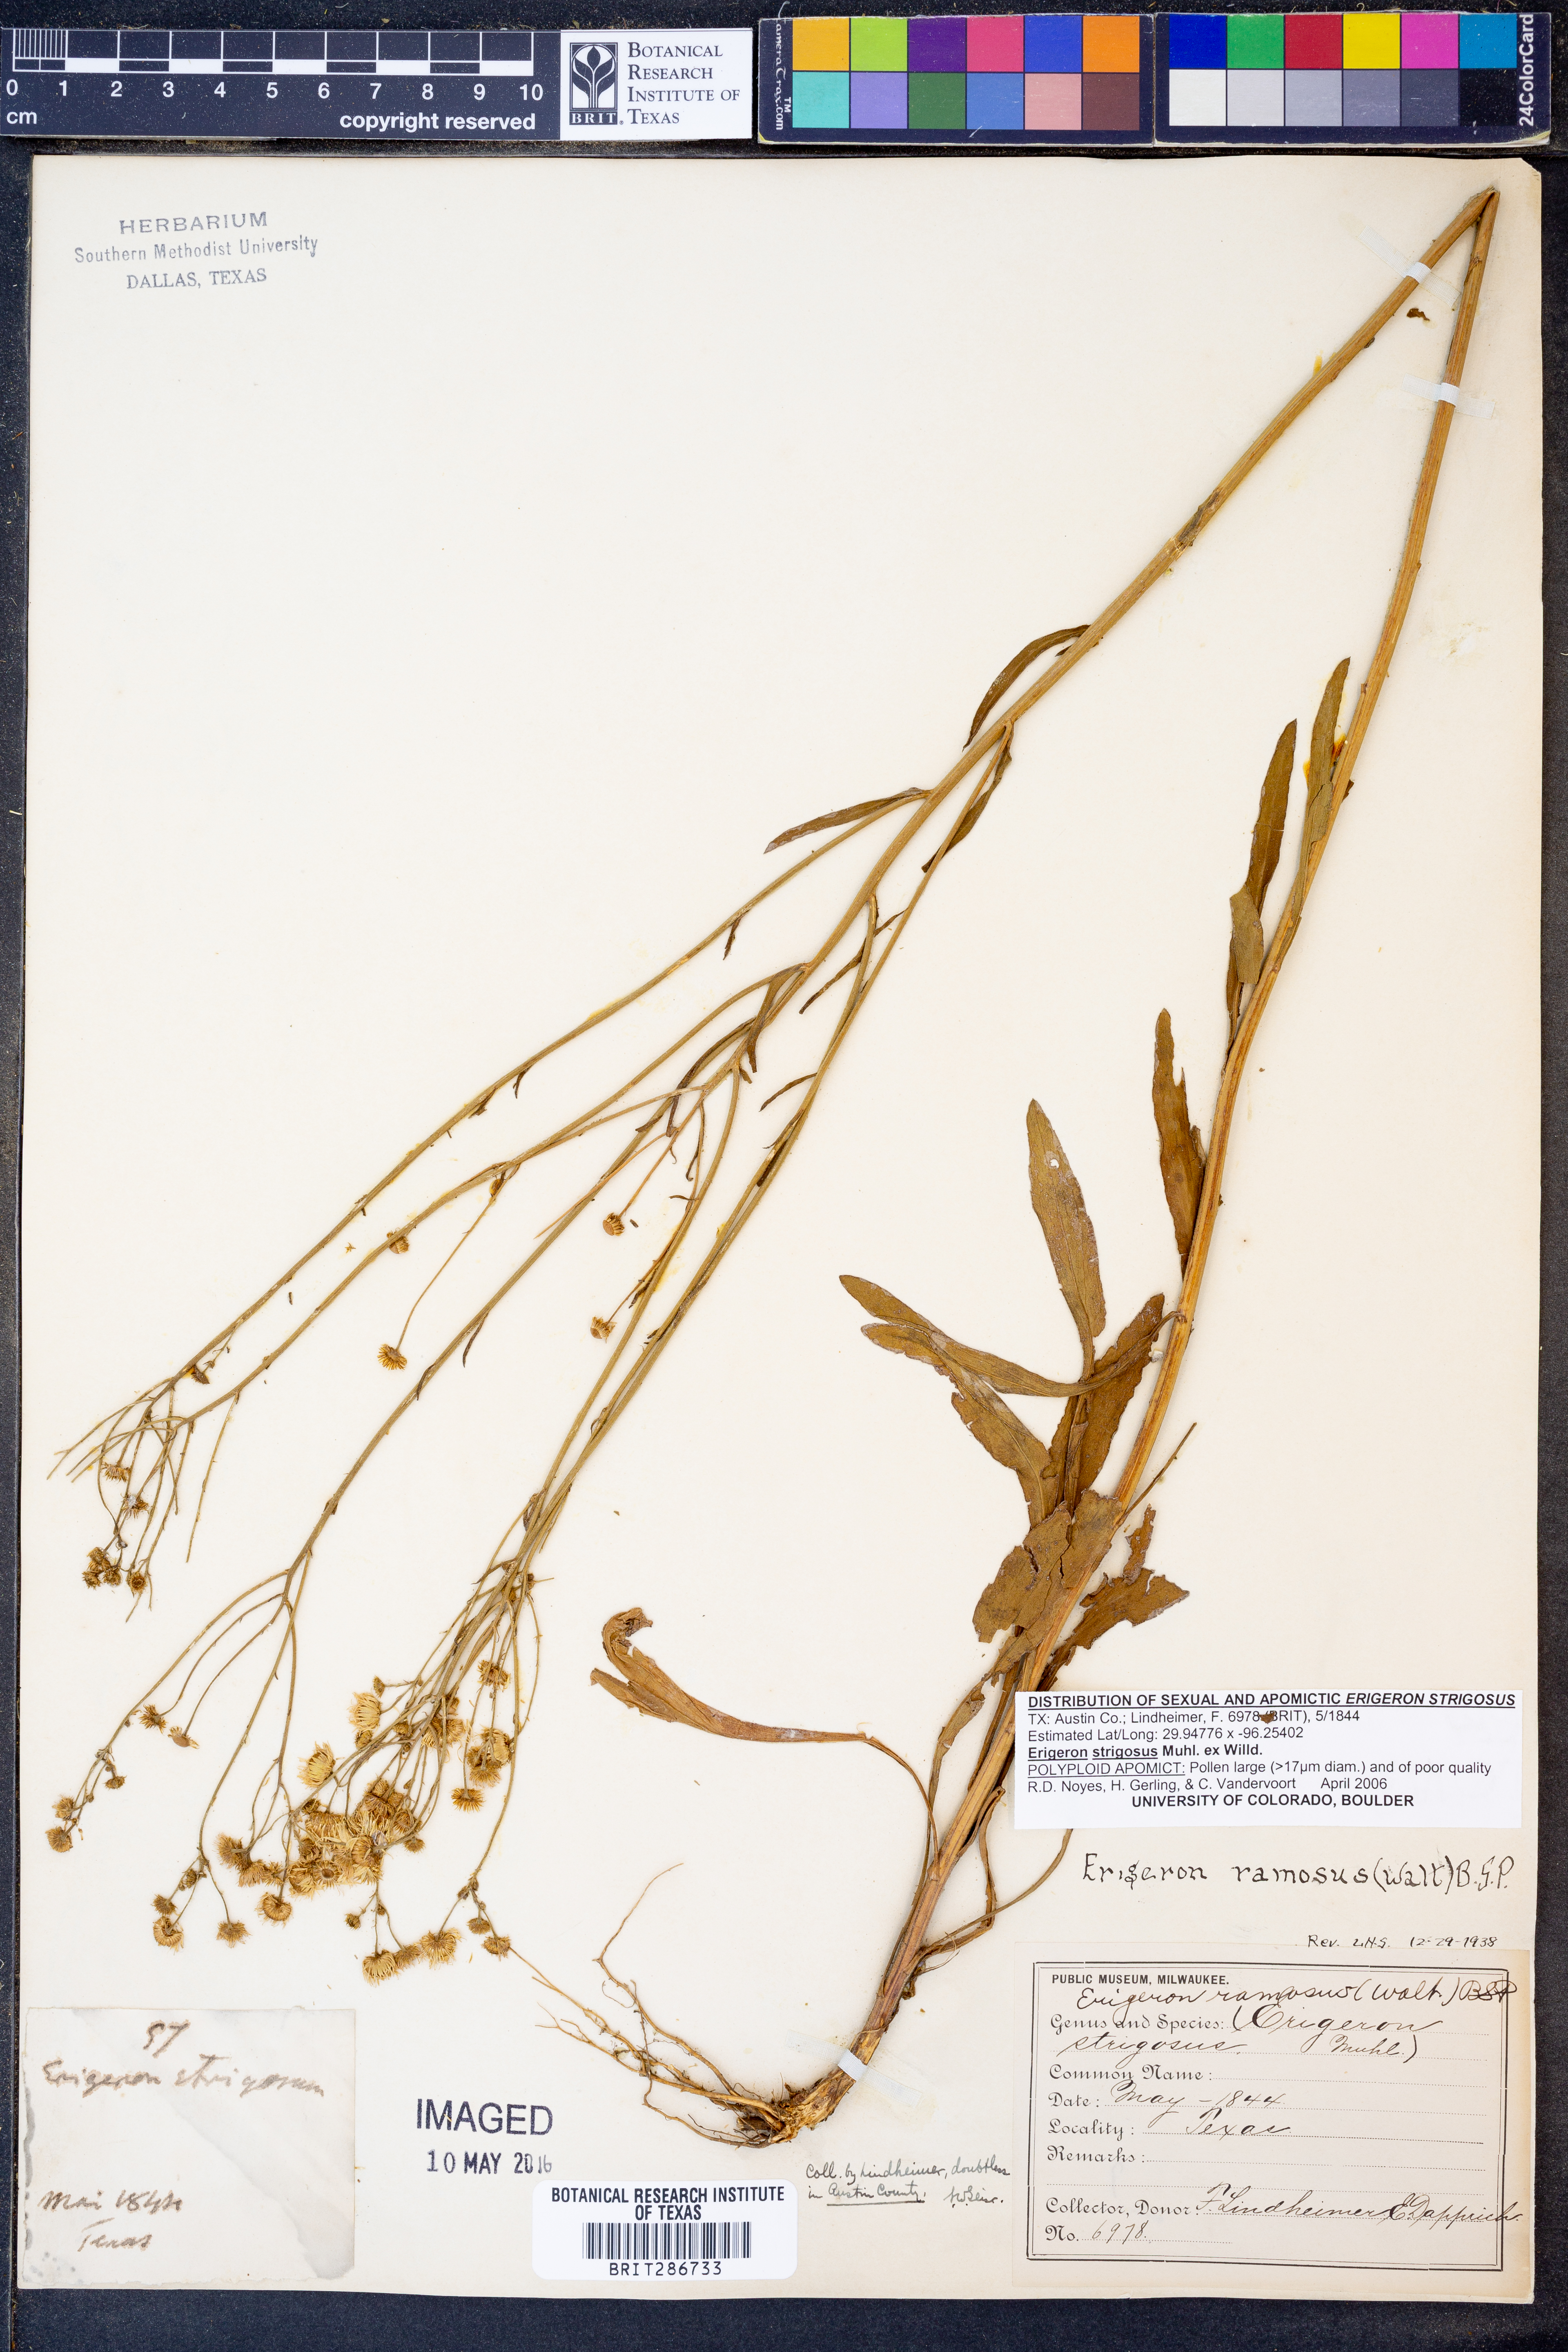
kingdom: Plantae
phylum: Tracheophyta
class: Magnoliopsida
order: Asterales
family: Asteraceae
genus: Erigeron
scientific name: Erigeron strigosus
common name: Common eastern fleabane
